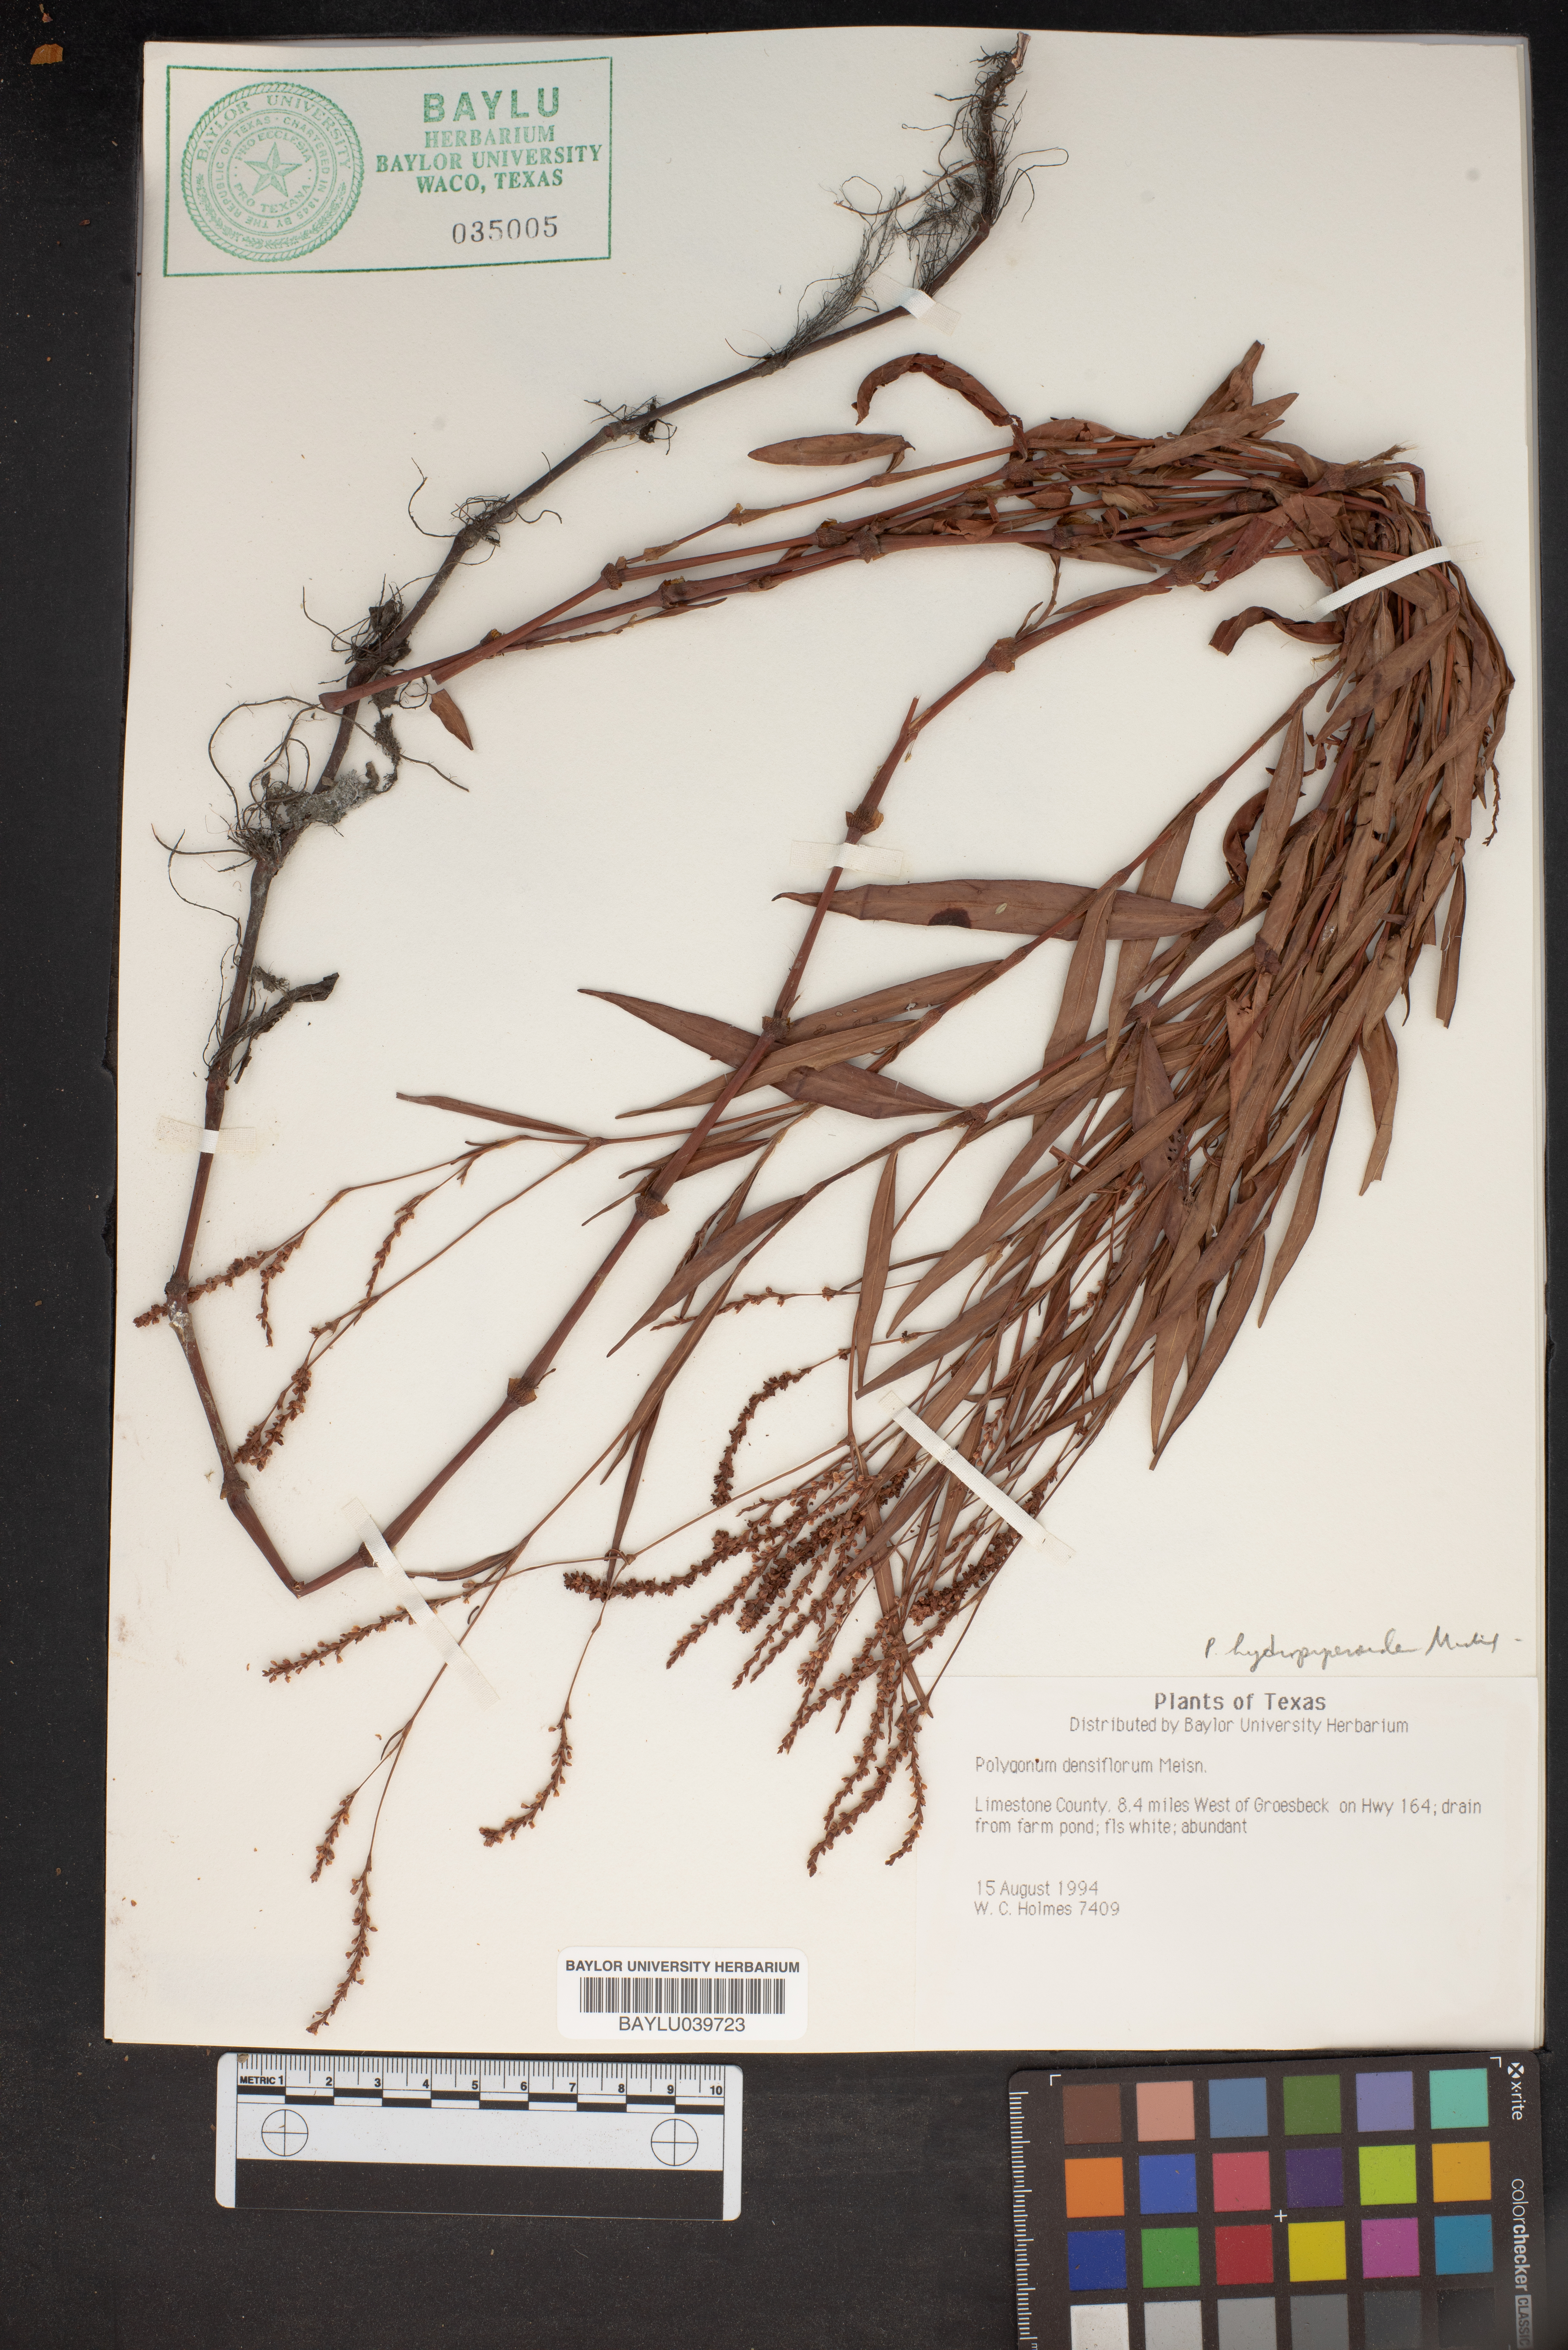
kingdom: Plantae
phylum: Tracheophyta
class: Magnoliopsida
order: Caryophyllales
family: Polygonaceae
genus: Persicaria
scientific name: Persicaria glabra
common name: Denseflower knotweed
